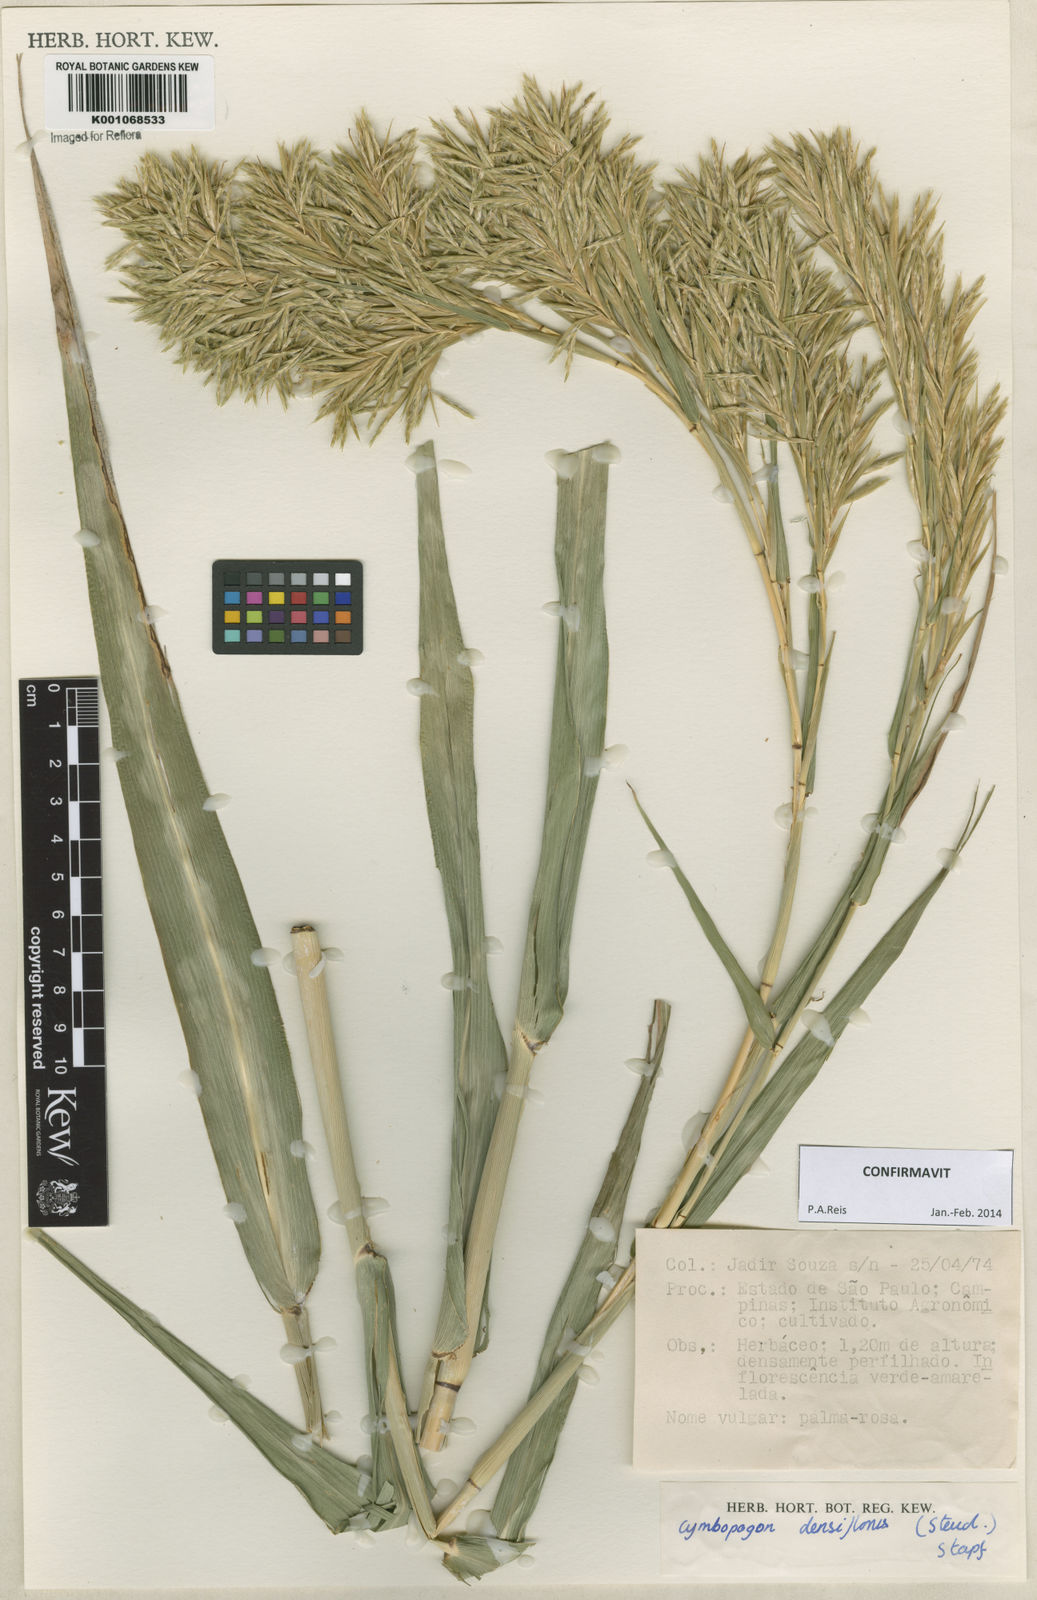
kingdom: Plantae
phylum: Tracheophyta
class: Liliopsida
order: Poales
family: Poaceae
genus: Cymbopogon
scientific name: Cymbopogon densiflorus
